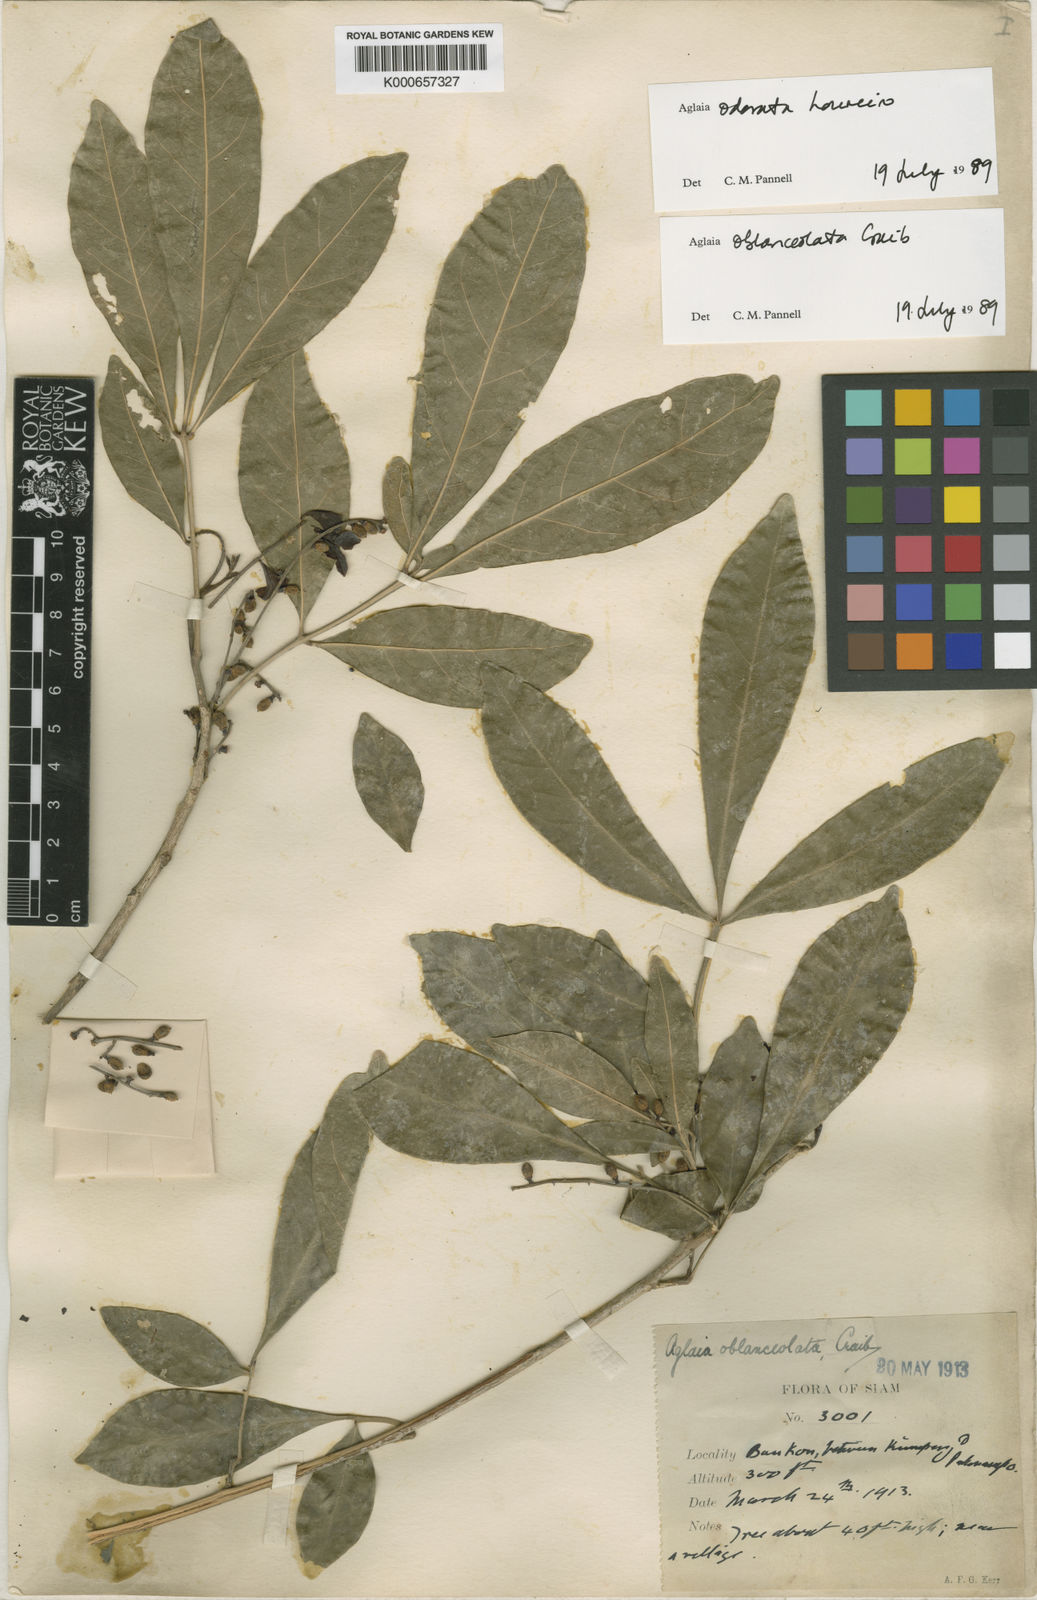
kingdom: Plantae
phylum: Tracheophyta
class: Magnoliopsida
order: Sapindales
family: Meliaceae
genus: Aglaia
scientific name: Aglaia odorata
